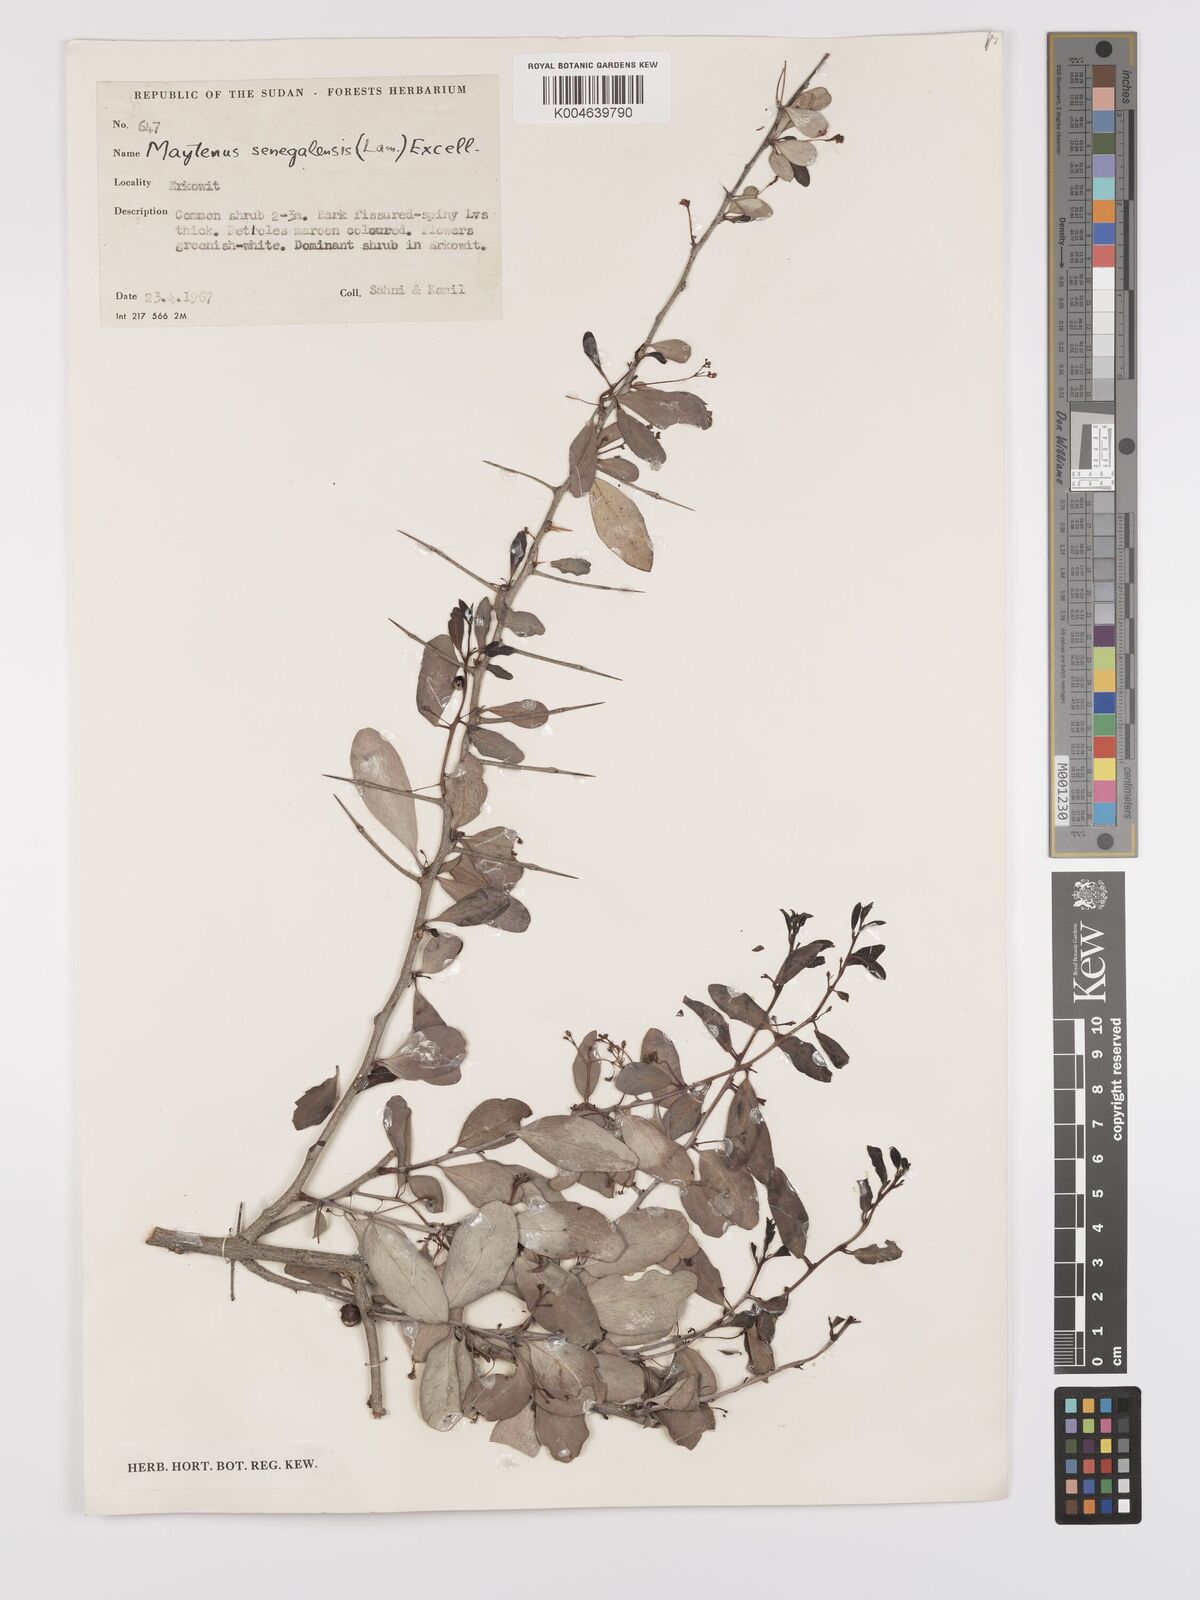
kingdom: Plantae
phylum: Tracheophyta
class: Magnoliopsida
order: Celastrales
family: Celastraceae
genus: Gymnosporia
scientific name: Gymnosporia senegalensis
